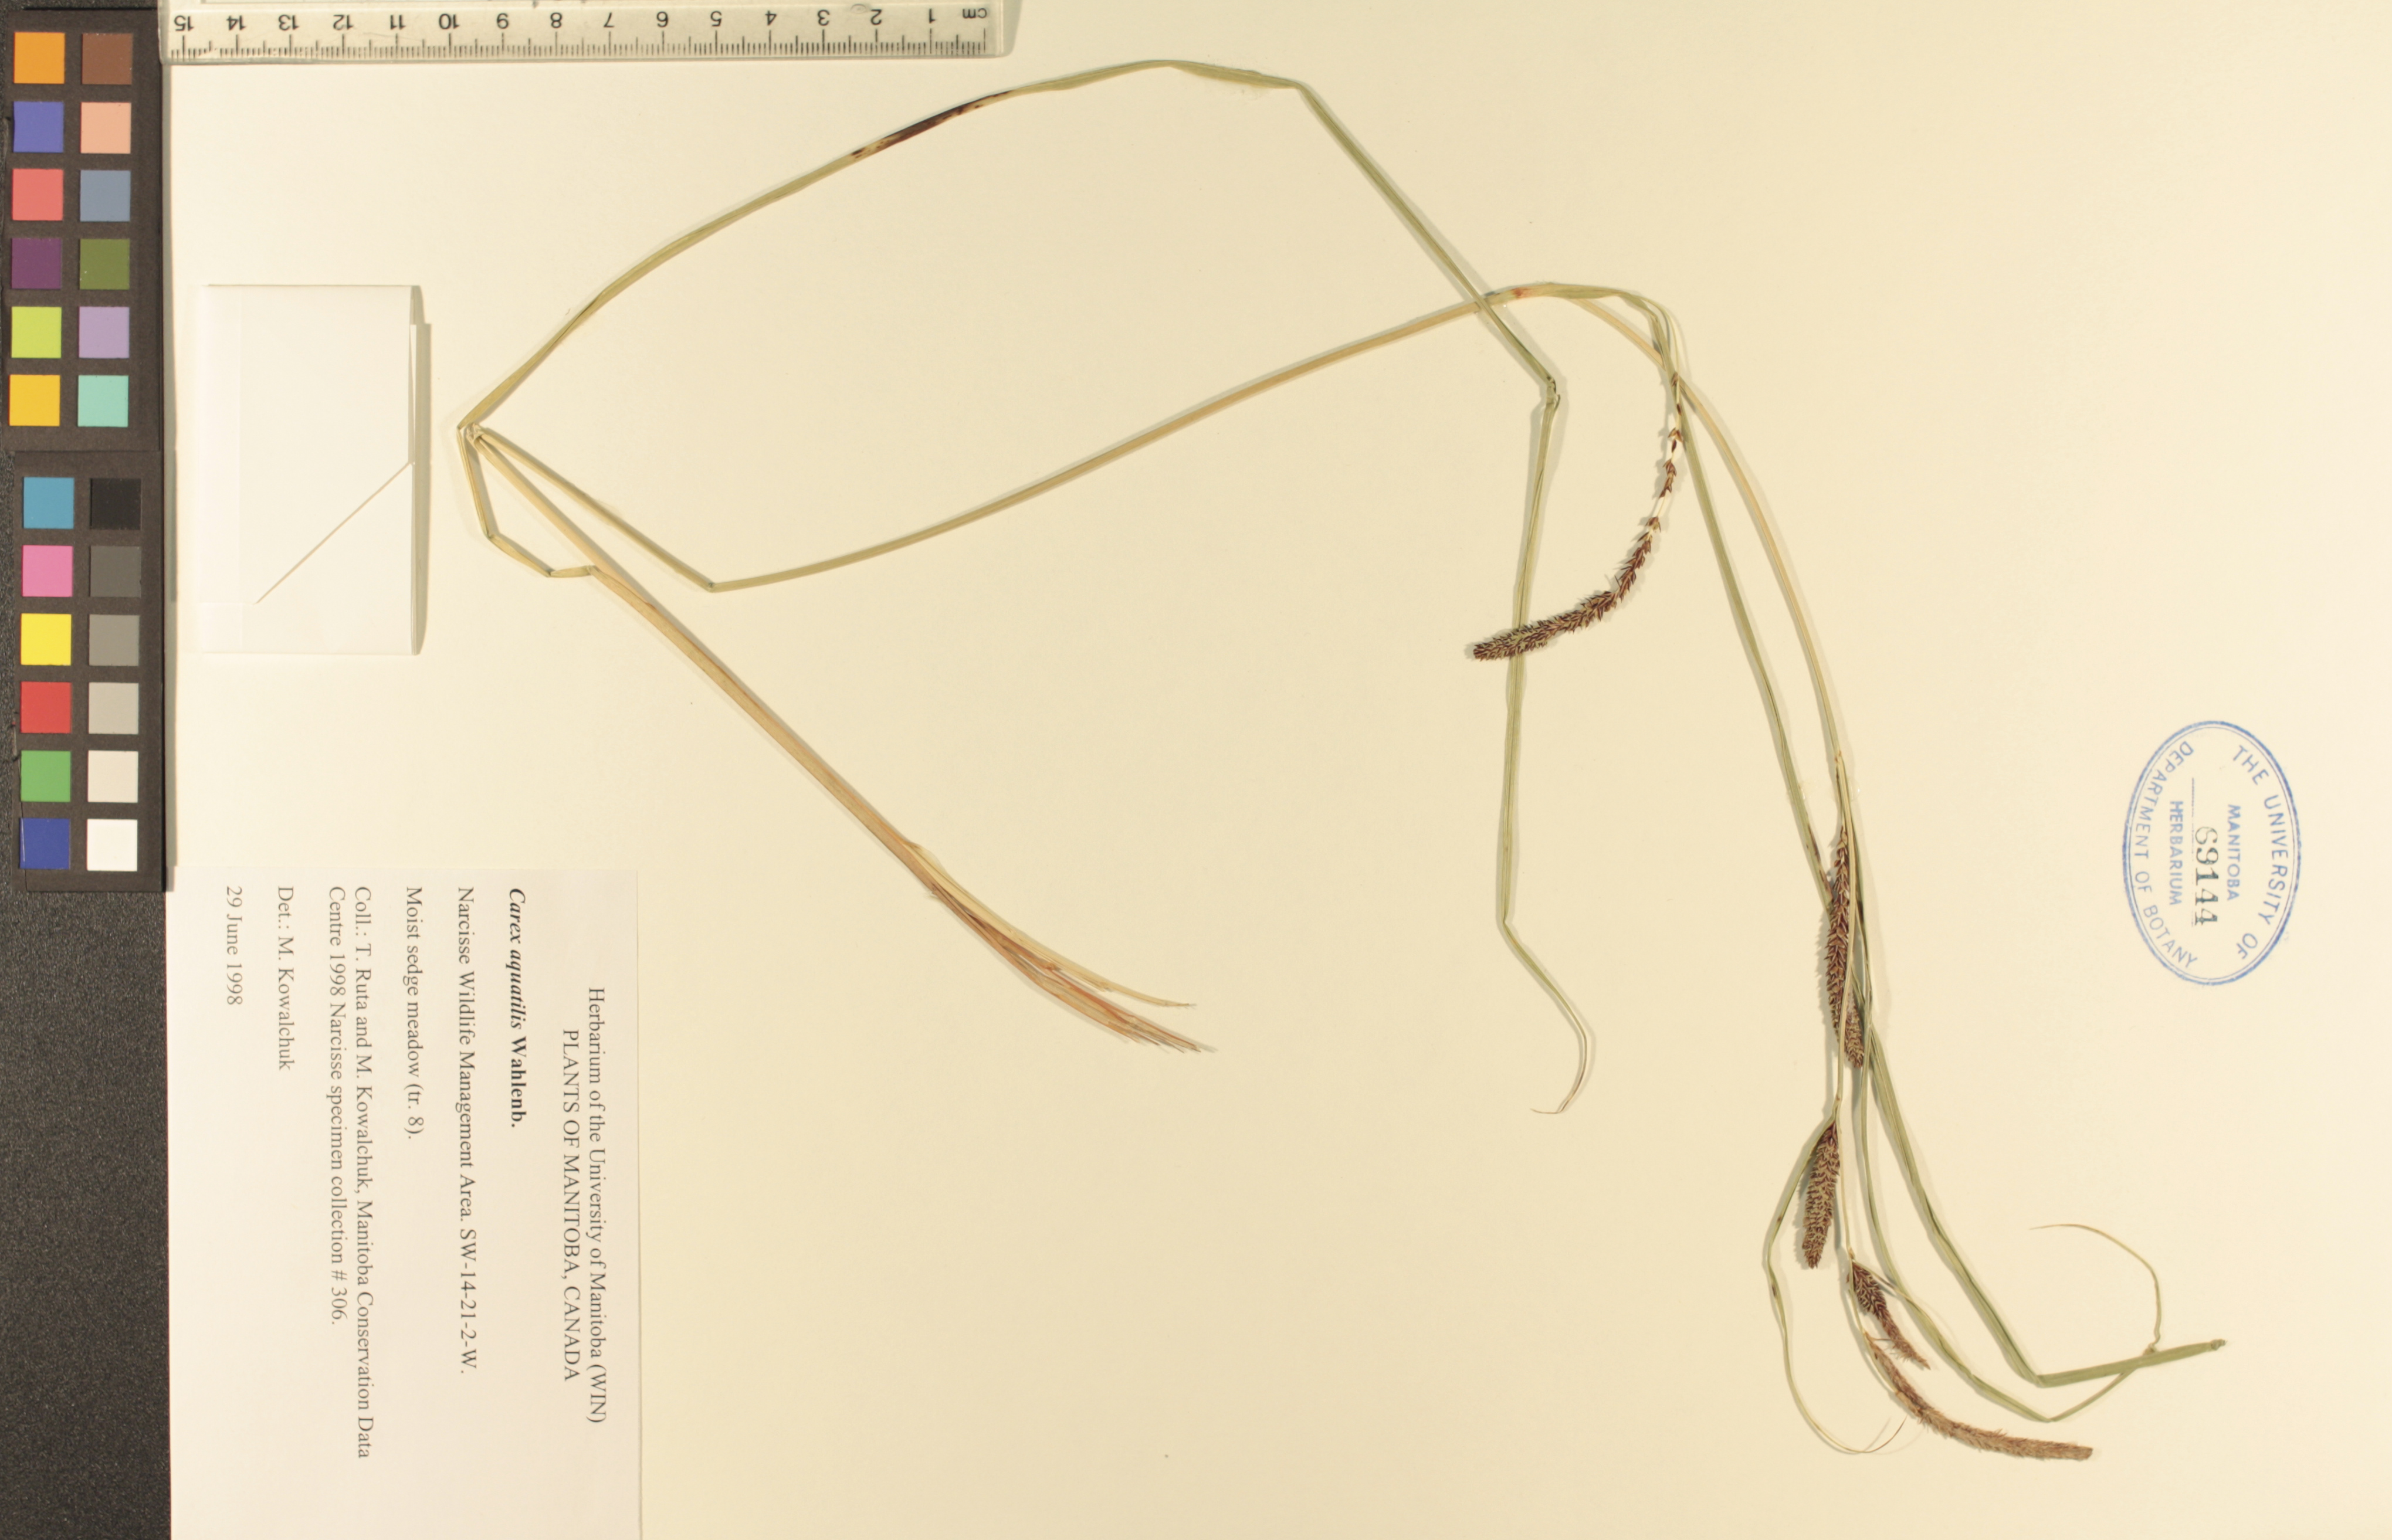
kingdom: Plantae
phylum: Tracheophyta
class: Liliopsida
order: Poales
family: Cyperaceae
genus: Carex
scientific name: Carex aquatilis
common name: Water sedge
